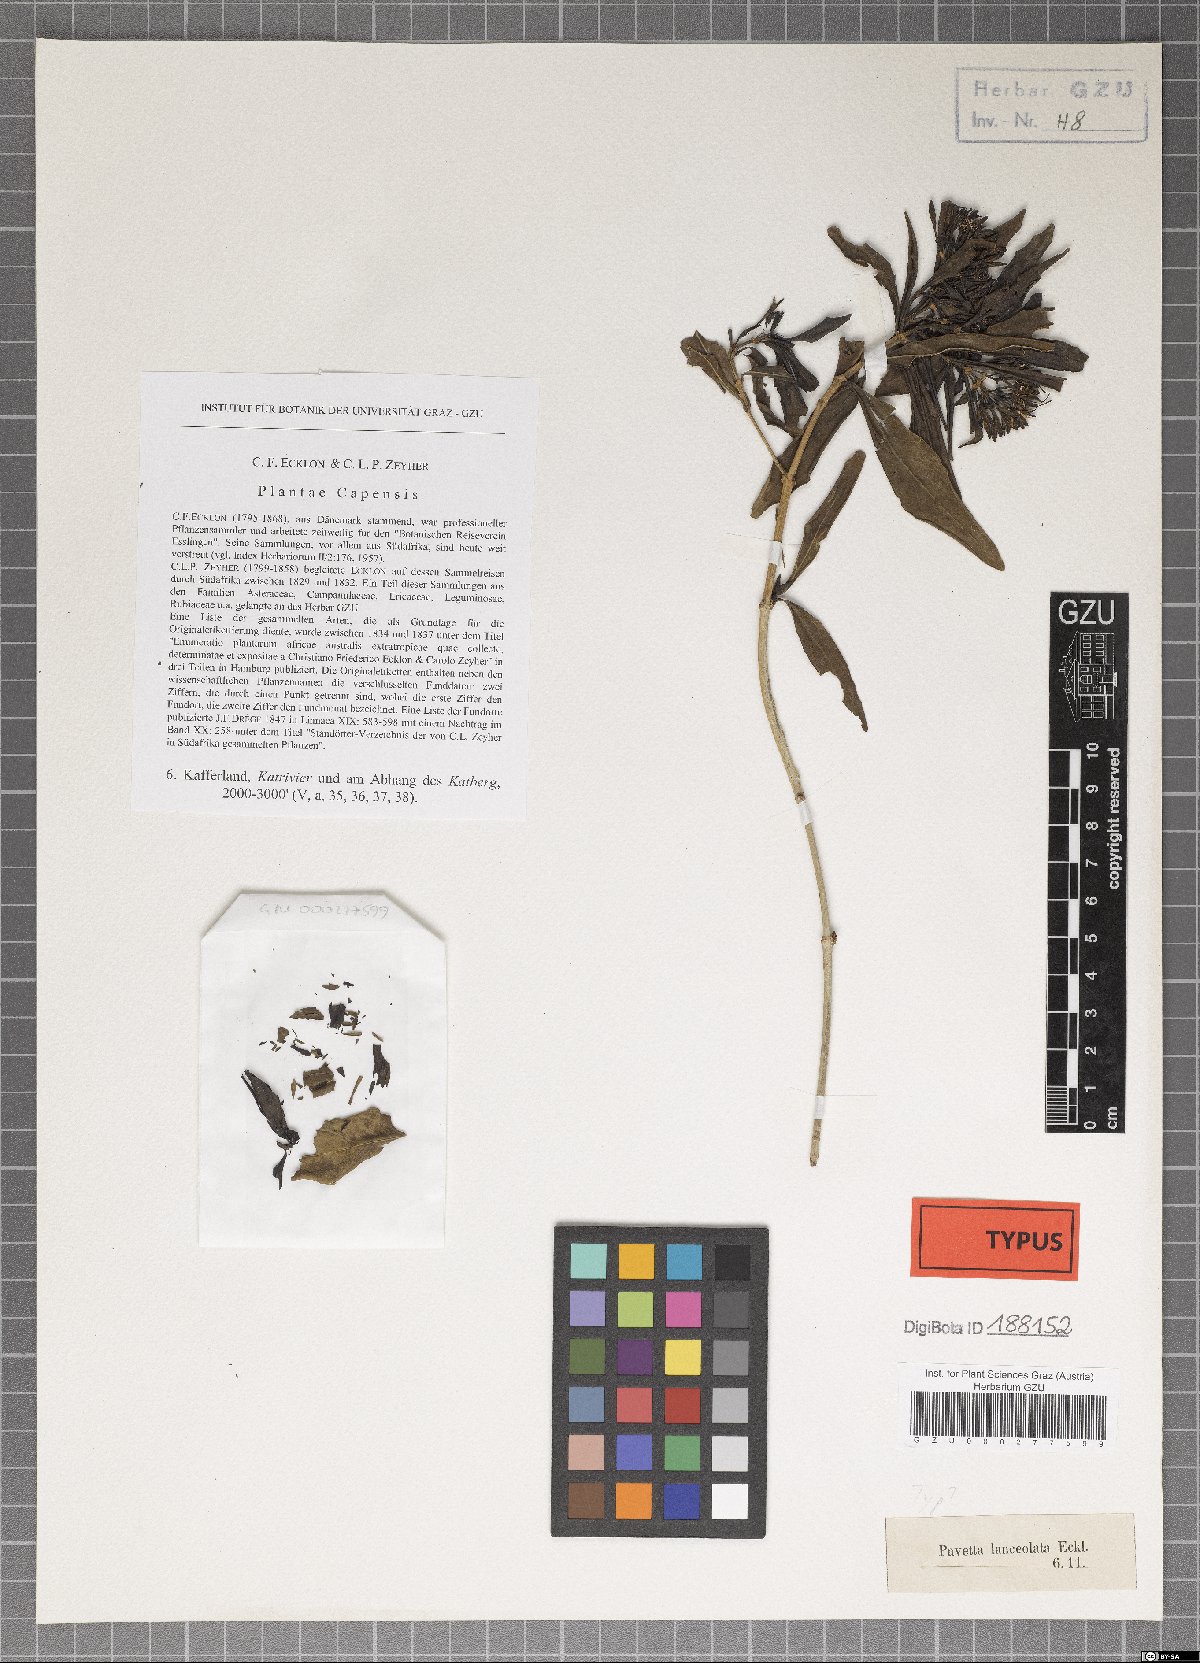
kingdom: Plantae
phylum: Tracheophyta
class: Magnoliopsida
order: Gentianales
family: Rubiaceae
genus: Pavetta
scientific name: Pavetta lanceolata
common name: Weeping brides-bush
